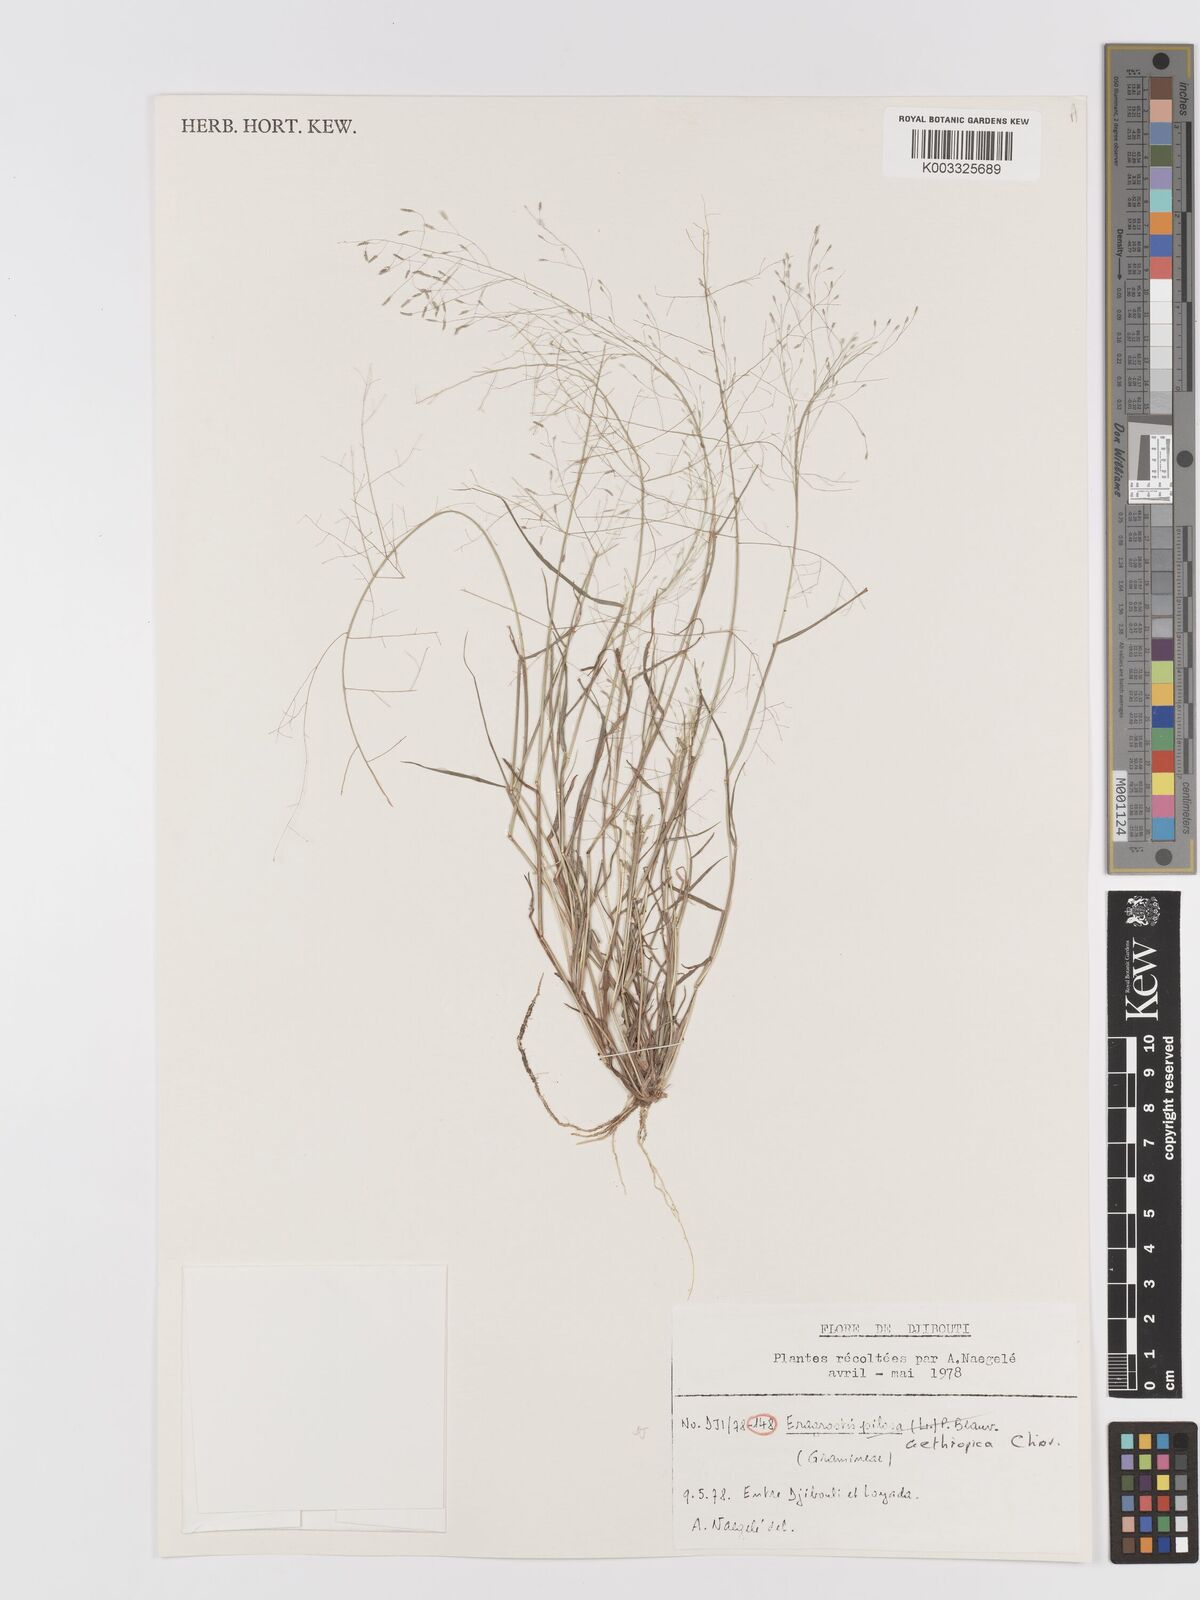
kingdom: Plantae
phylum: Tracheophyta
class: Liliopsida
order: Poales
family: Poaceae
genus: Eragrostis
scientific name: Eragrostis aethiopica
